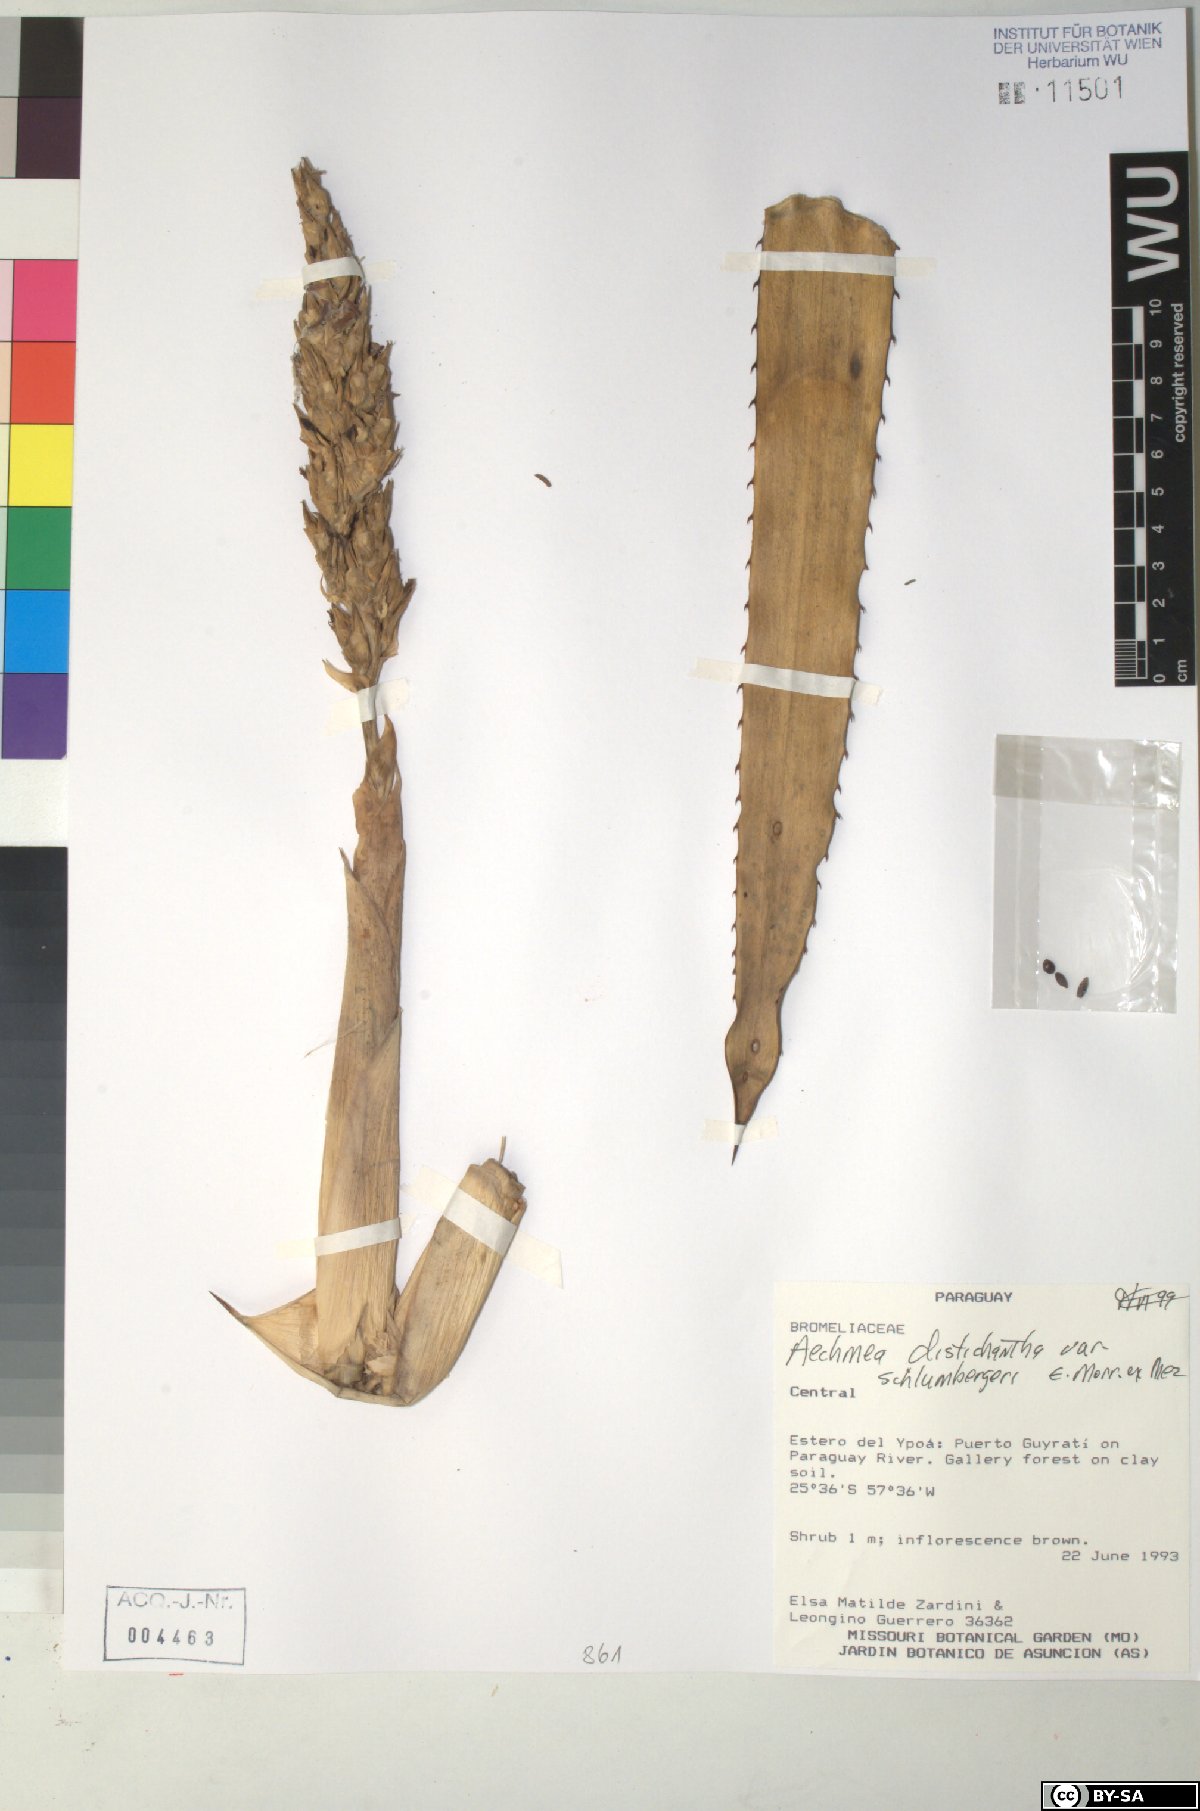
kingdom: Plantae
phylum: Tracheophyta
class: Liliopsida
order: Poales
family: Bromeliaceae
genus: Aechmea
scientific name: Aechmea distichantha
